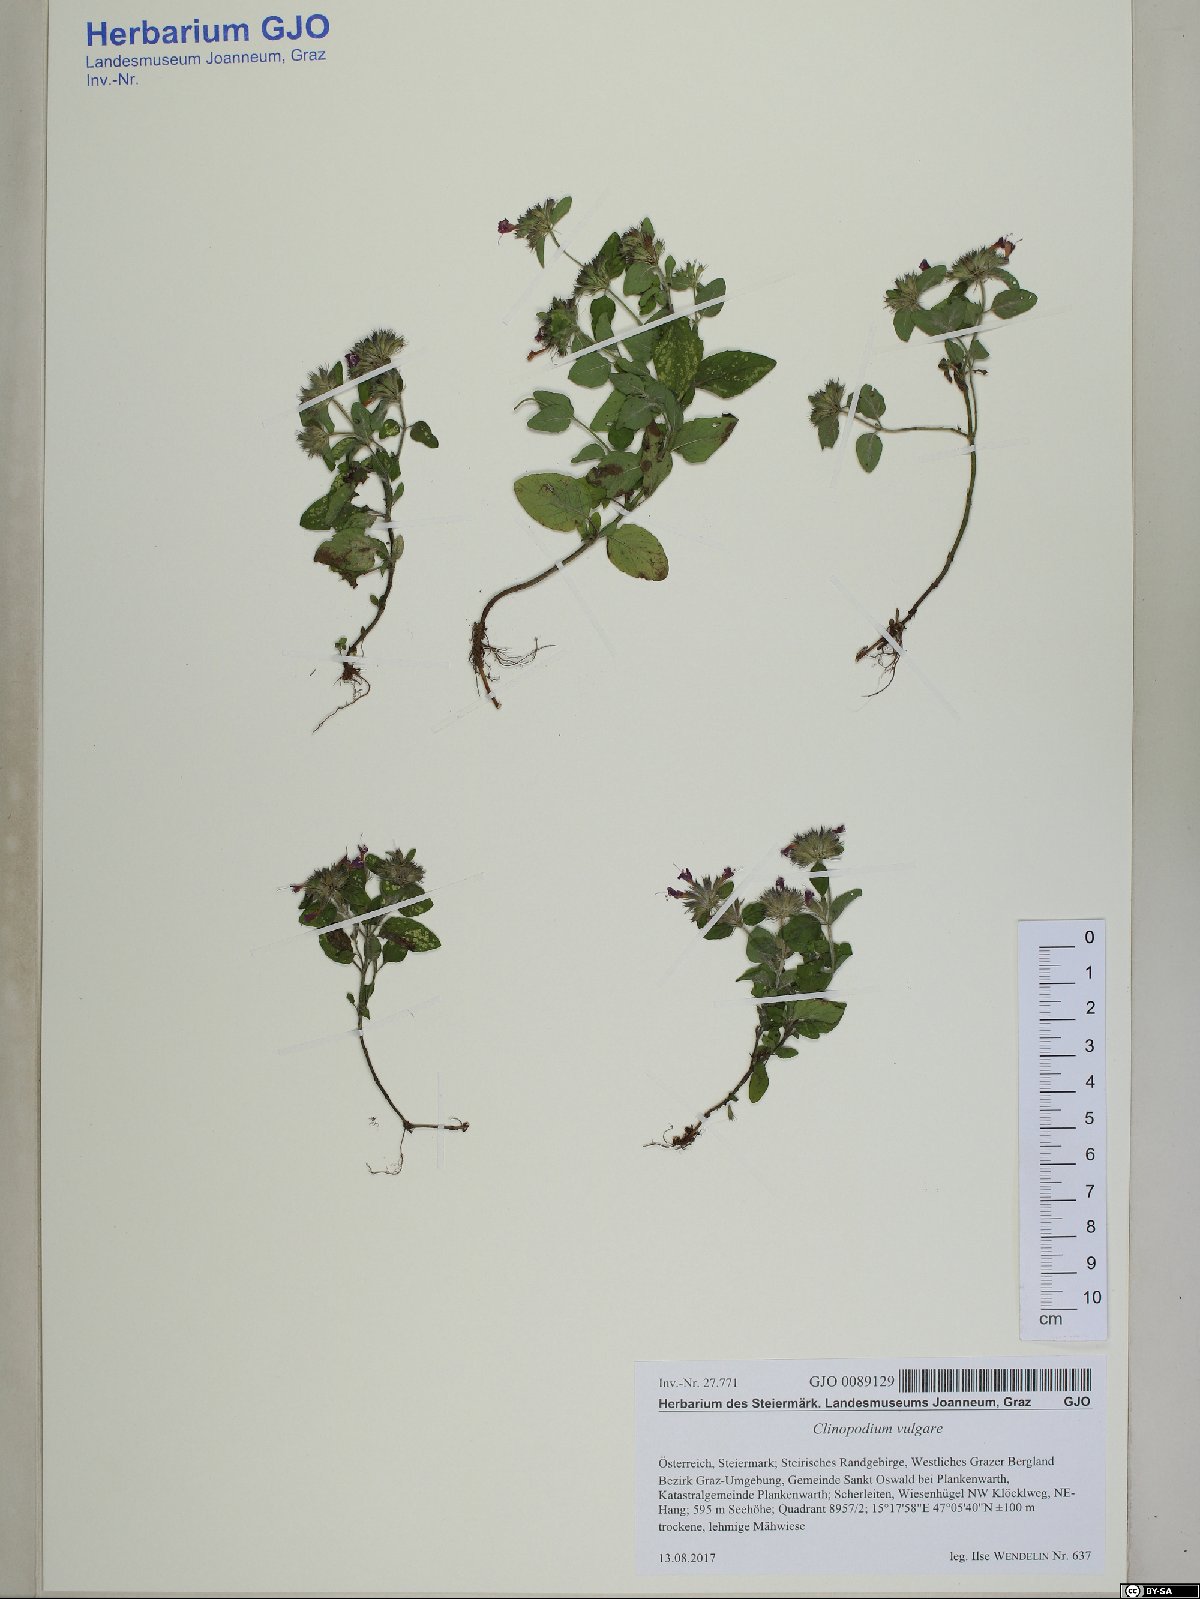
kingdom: Plantae
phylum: Tracheophyta
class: Magnoliopsida
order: Lamiales
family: Lamiaceae
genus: Clinopodium
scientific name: Clinopodium vulgare
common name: Wild basil
